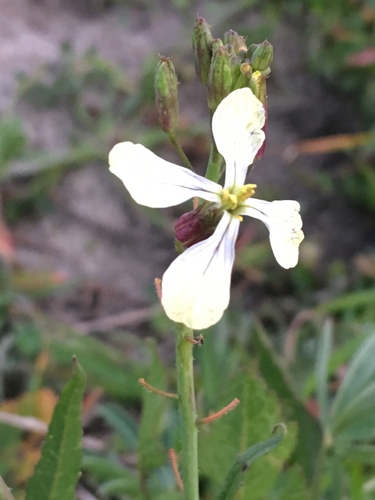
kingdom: Plantae
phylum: Tracheophyta
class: Magnoliopsida
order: Brassicales
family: Brassicaceae
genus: Raphanus
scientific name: Raphanus raphanistrum
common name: Wild radish
